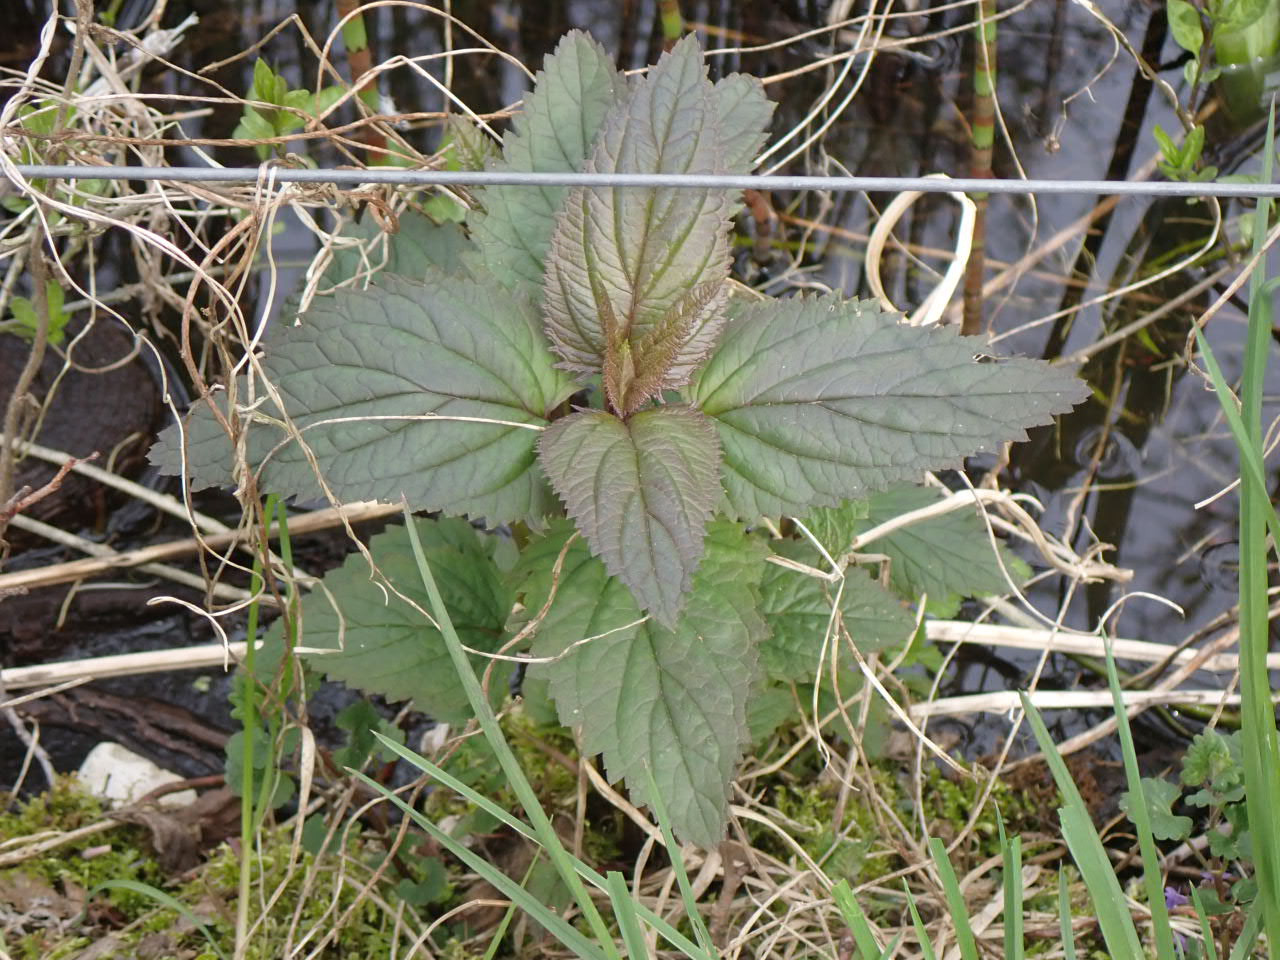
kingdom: Plantae
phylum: Tracheophyta
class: Magnoliopsida
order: Lamiales
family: Scrophulariaceae
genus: Scrophularia
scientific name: Scrophularia nodosa
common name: Knoldet brunrod
